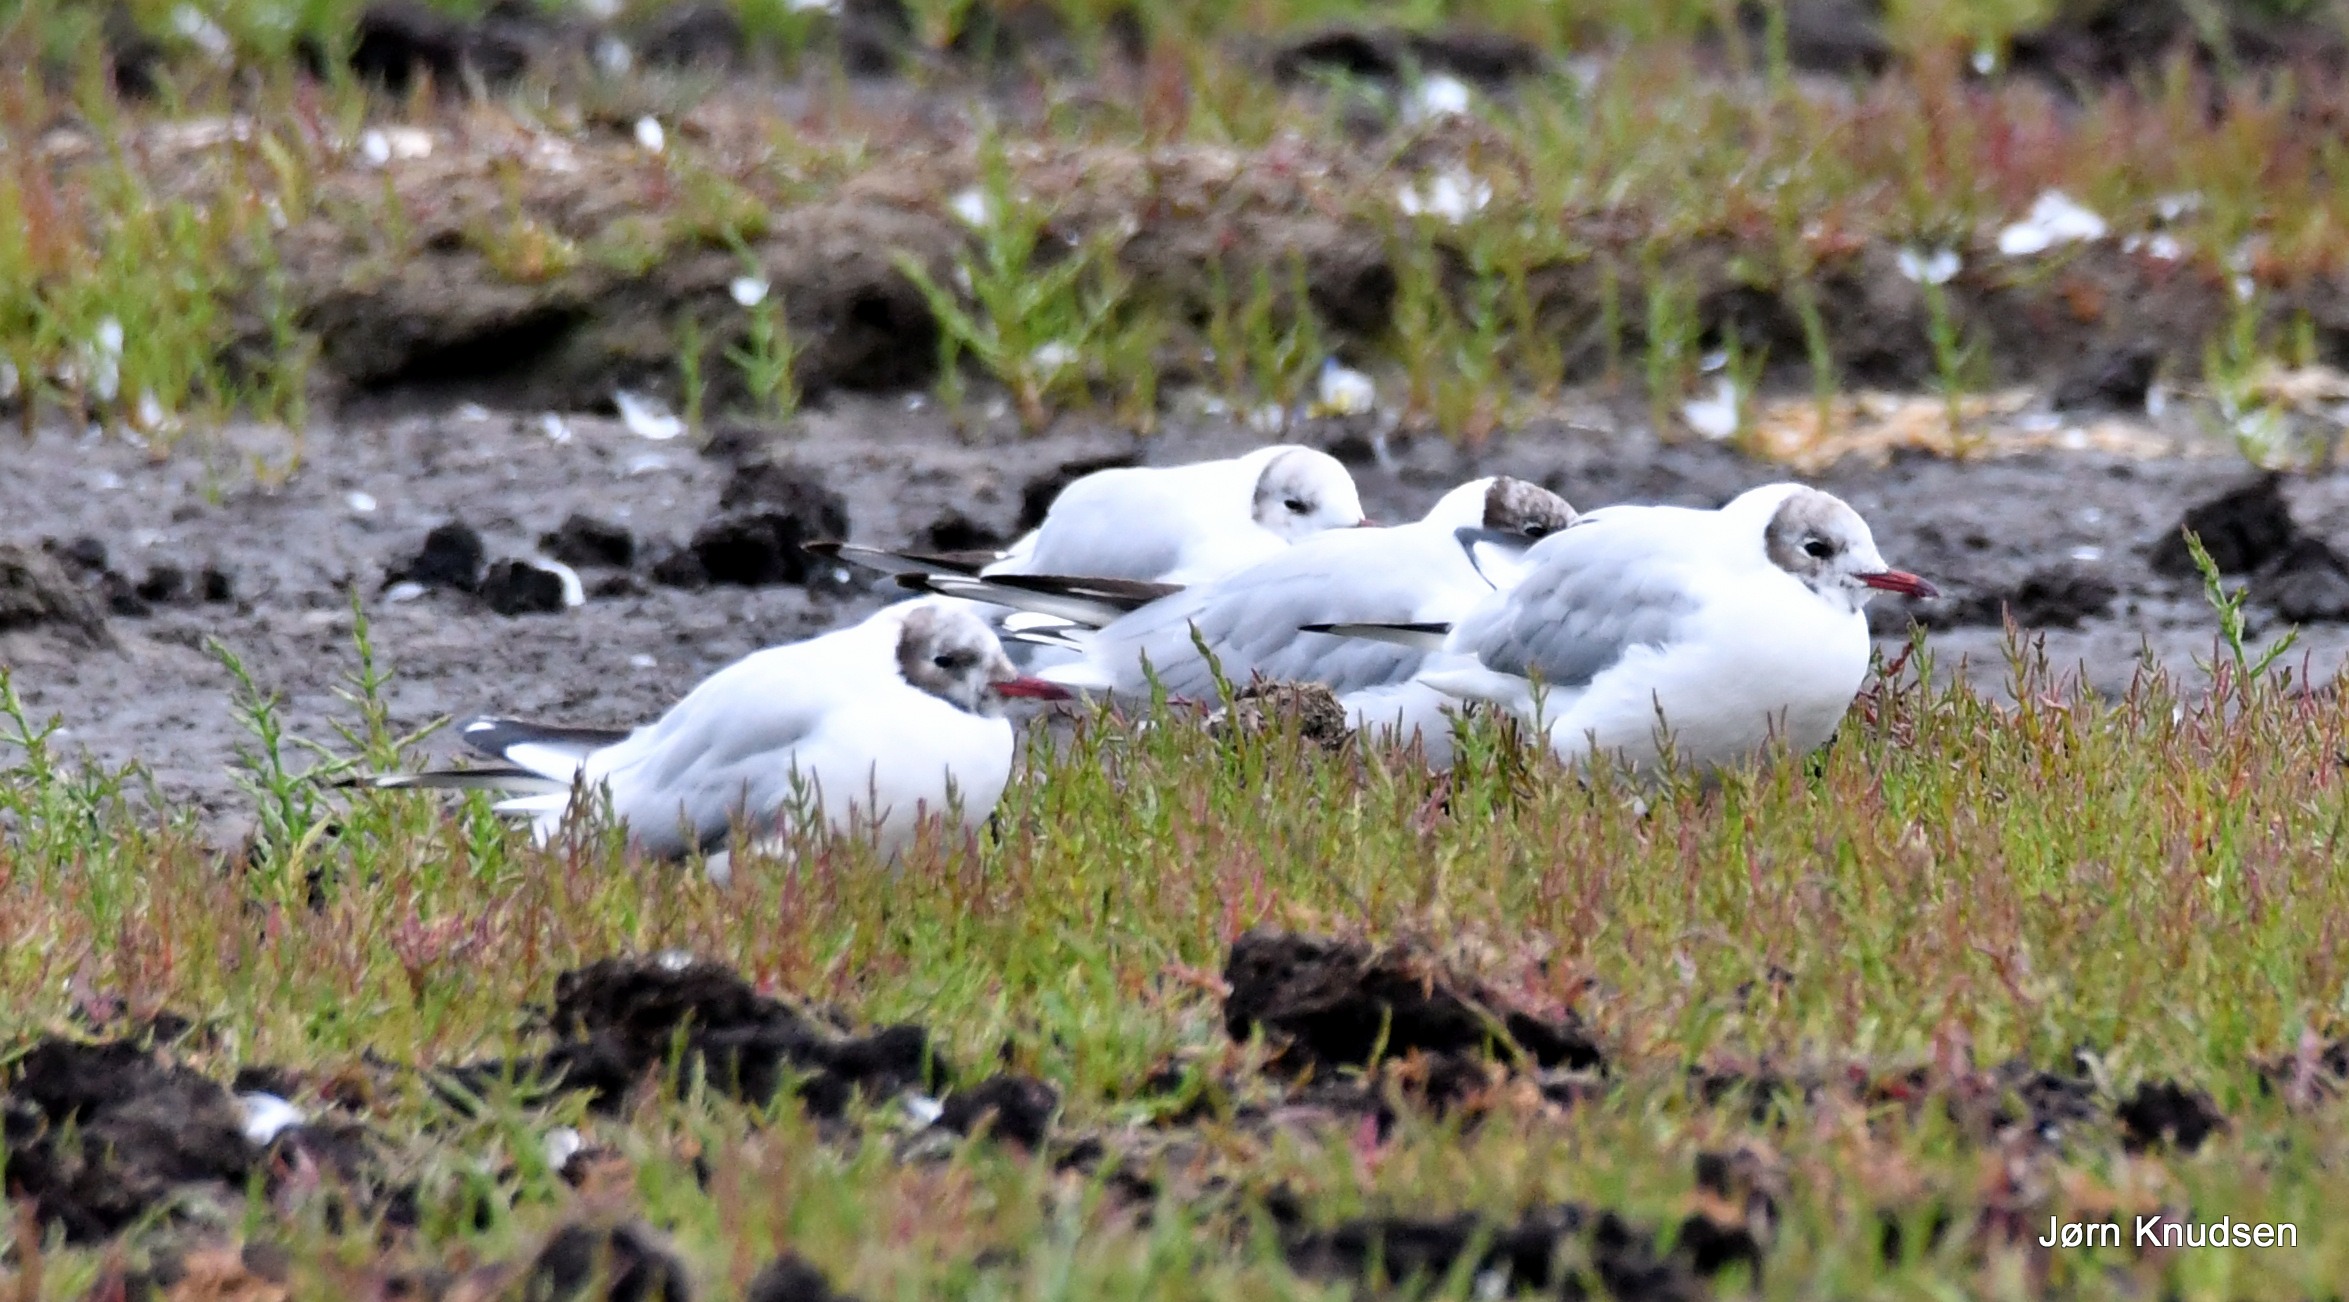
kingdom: Animalia
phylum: Chordata
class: Aves
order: Charadriiformes
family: Laridae
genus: Chroicocephalus
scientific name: Chroicocephalus ridibundus
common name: Hættemåge
